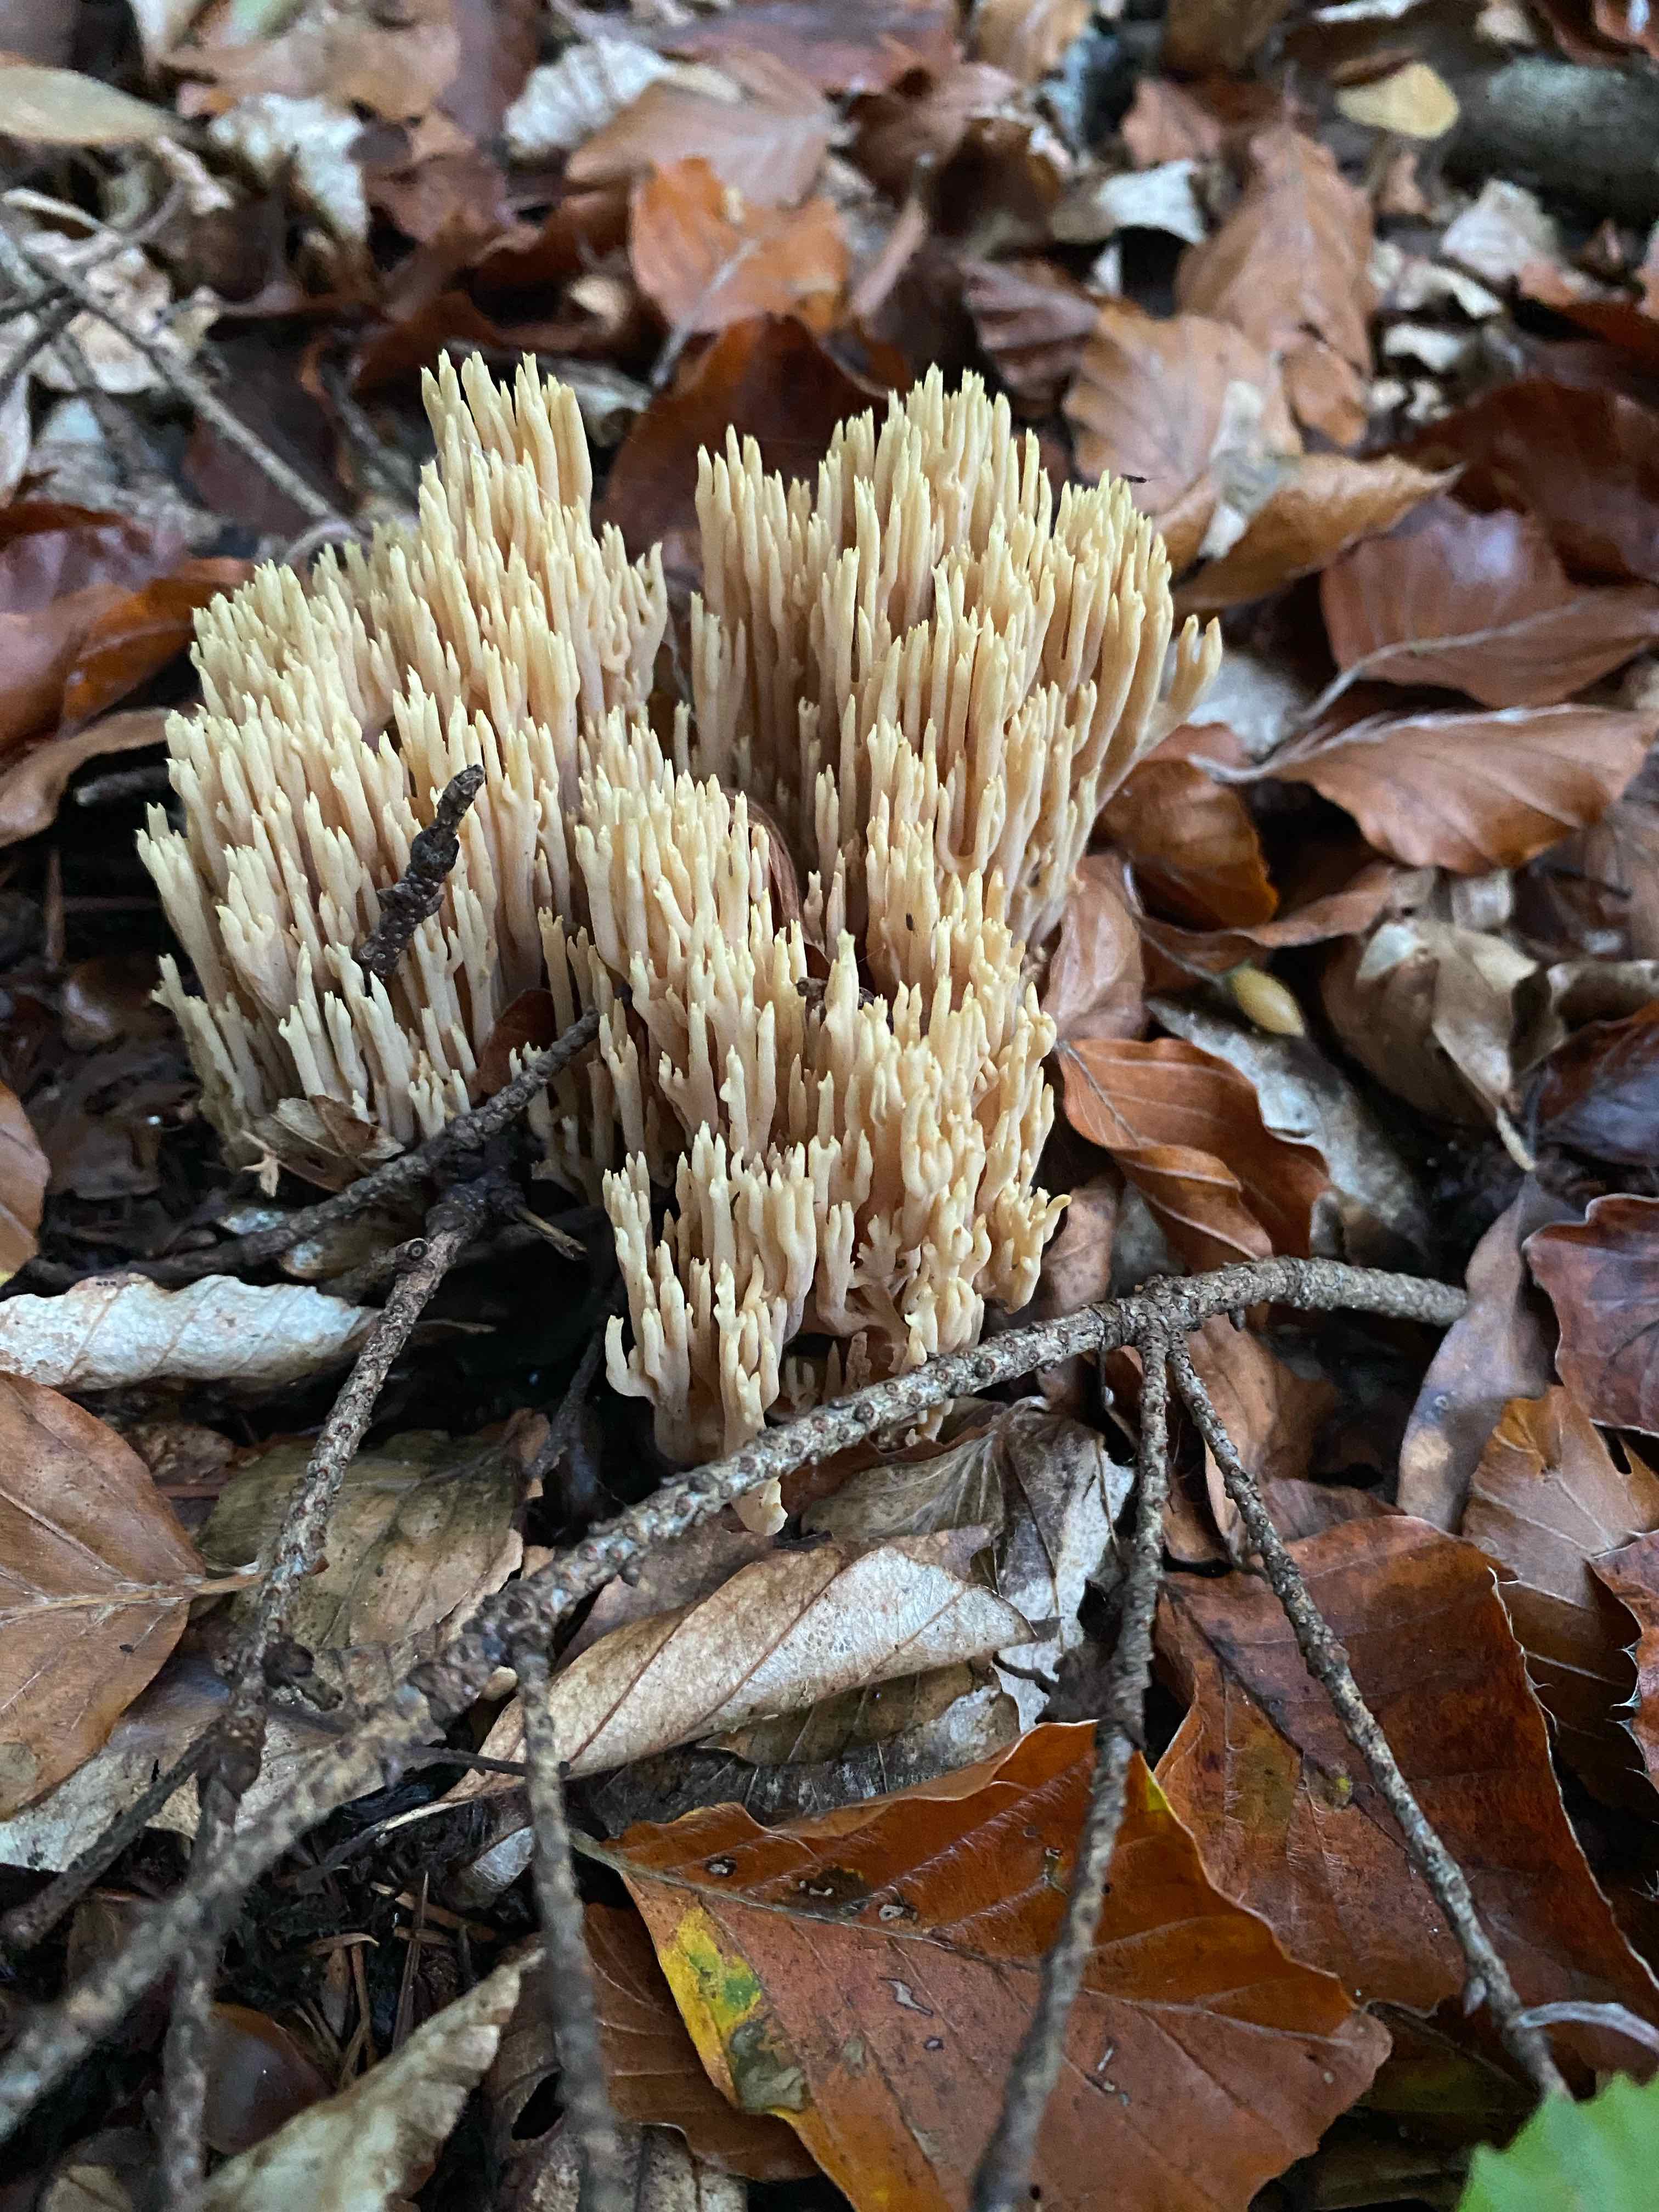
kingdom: Fungi
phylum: Basidiomycota
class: Agaricomycetes
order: Gomphales
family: Gomphaceae
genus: Ramaria
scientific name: Ramaria stricta
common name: rank koralsvamp
